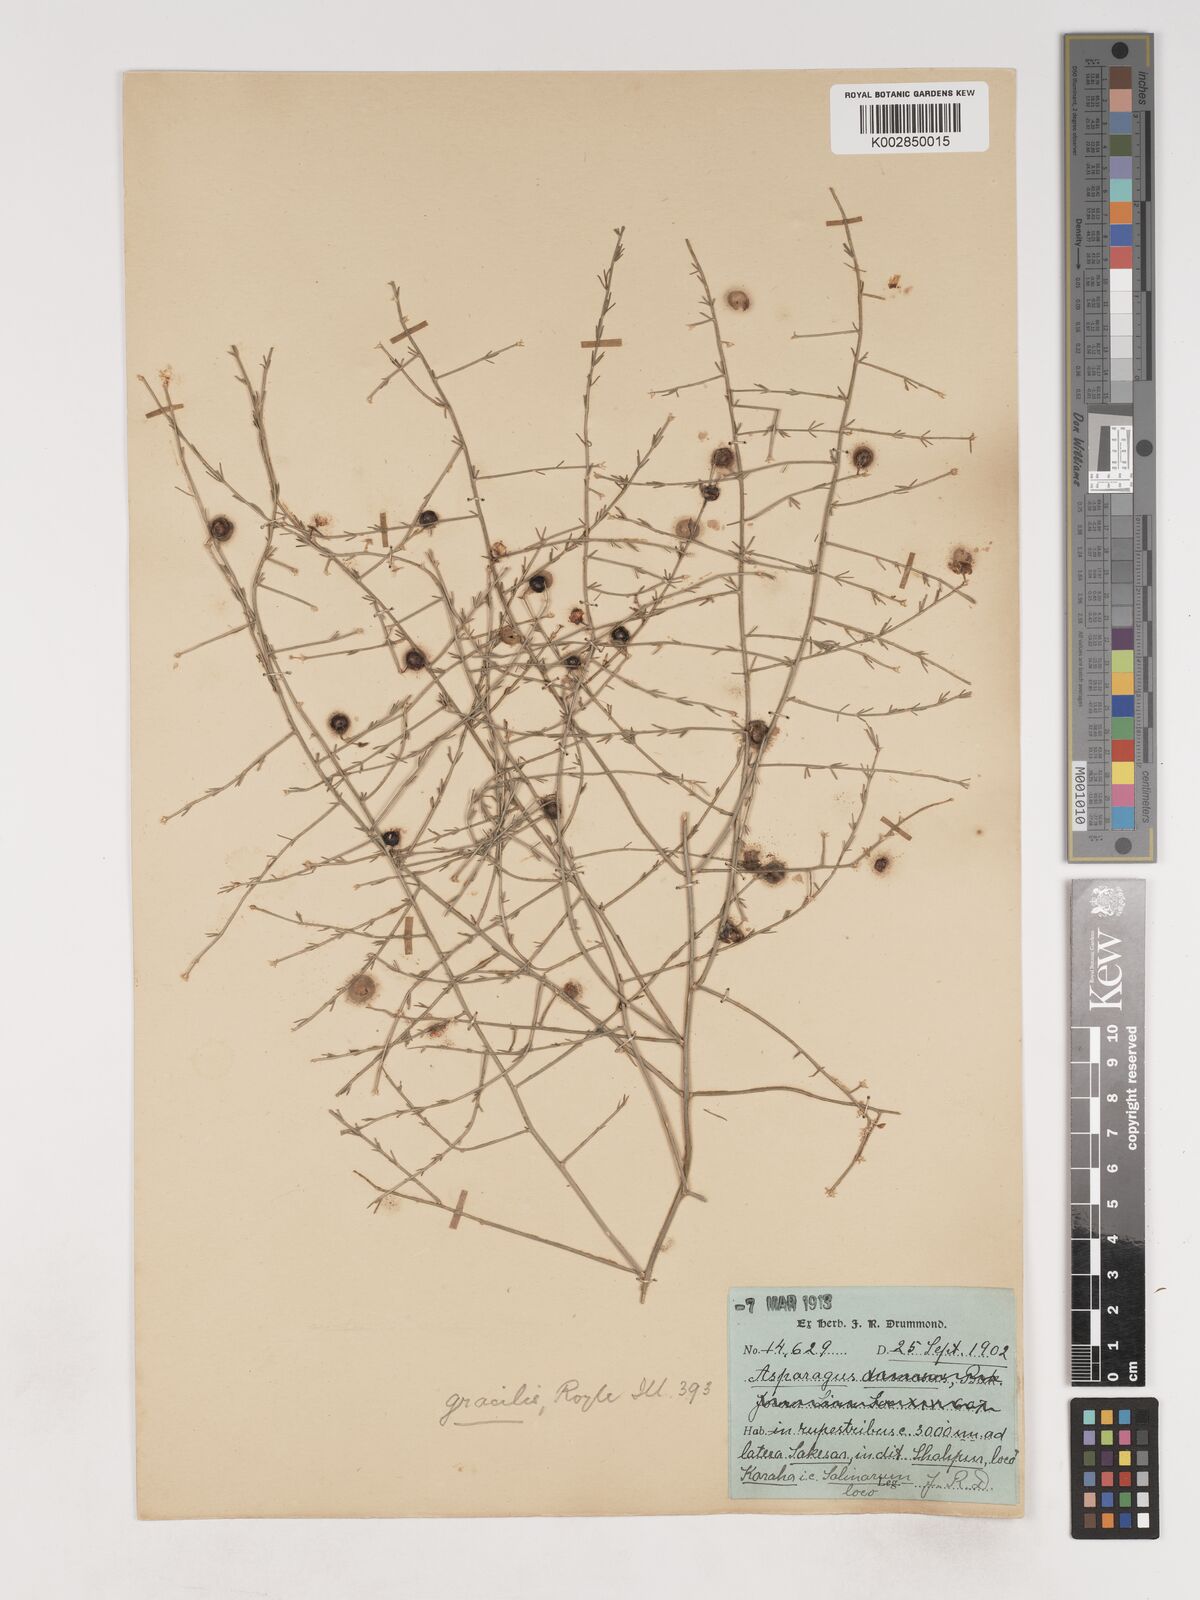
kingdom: Plantae
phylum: Tracheophyta
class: Liliopsida
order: Asparagales
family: Asparagaceae
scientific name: Asparagaceae
